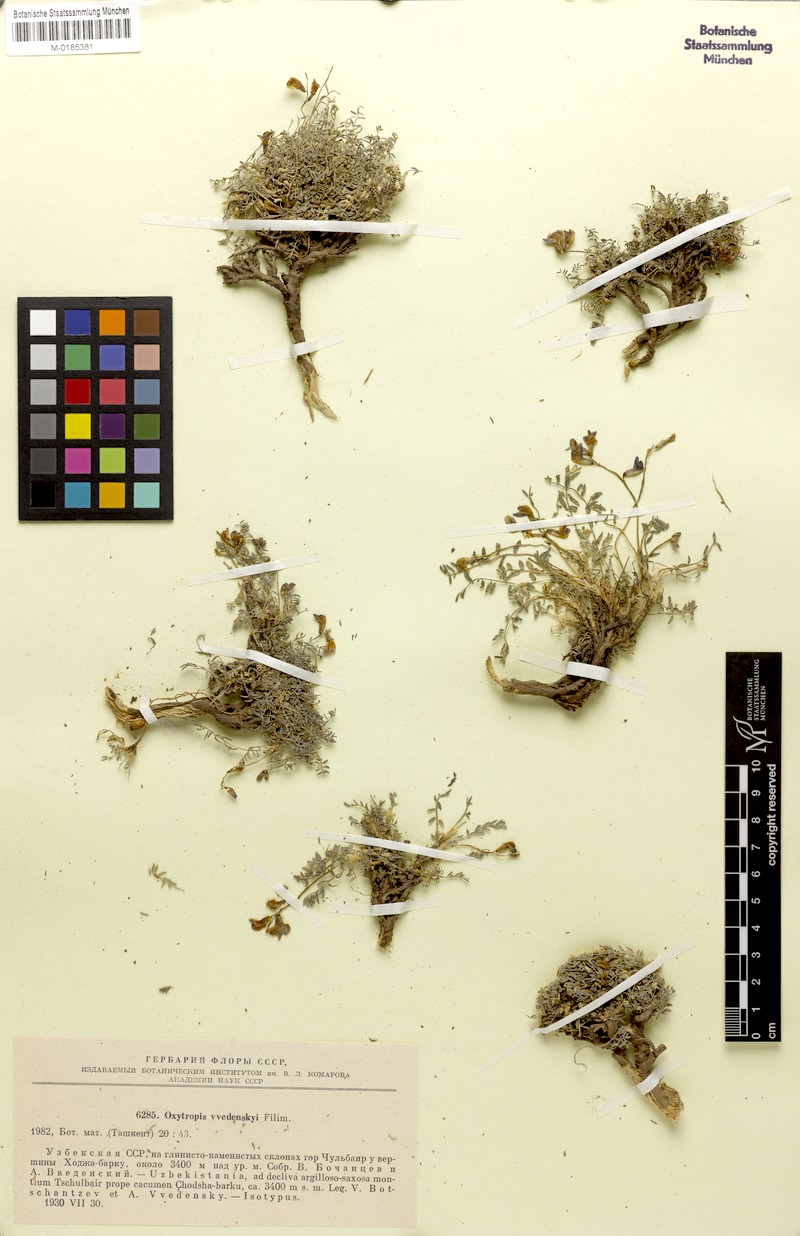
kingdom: Plantae
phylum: Tracheophyta
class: Magnoliopsida
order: Fabales
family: Fabaceae
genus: Oxytropis
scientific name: Oxytropis humifusa
